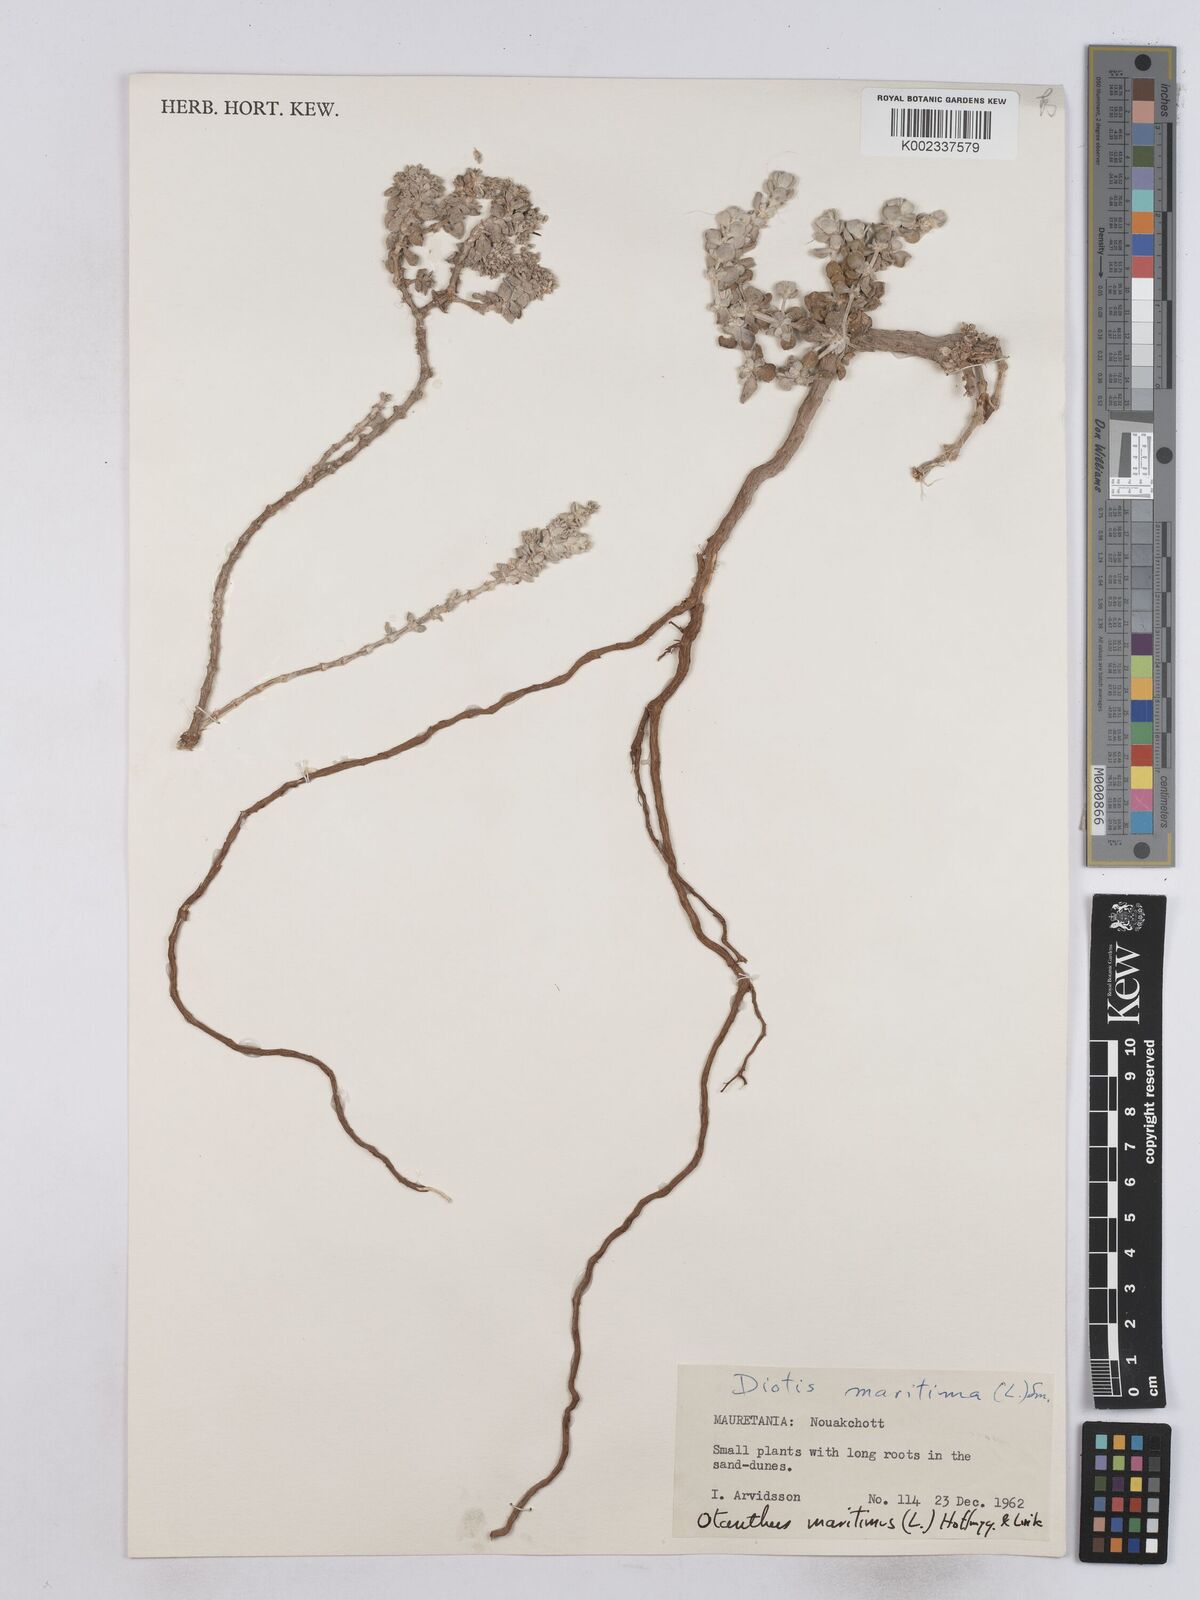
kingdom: Plantae
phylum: Tracheophyta
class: Magnoliopsida
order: Asterales
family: Asteraceae
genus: Achillea
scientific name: Achillea maritima
